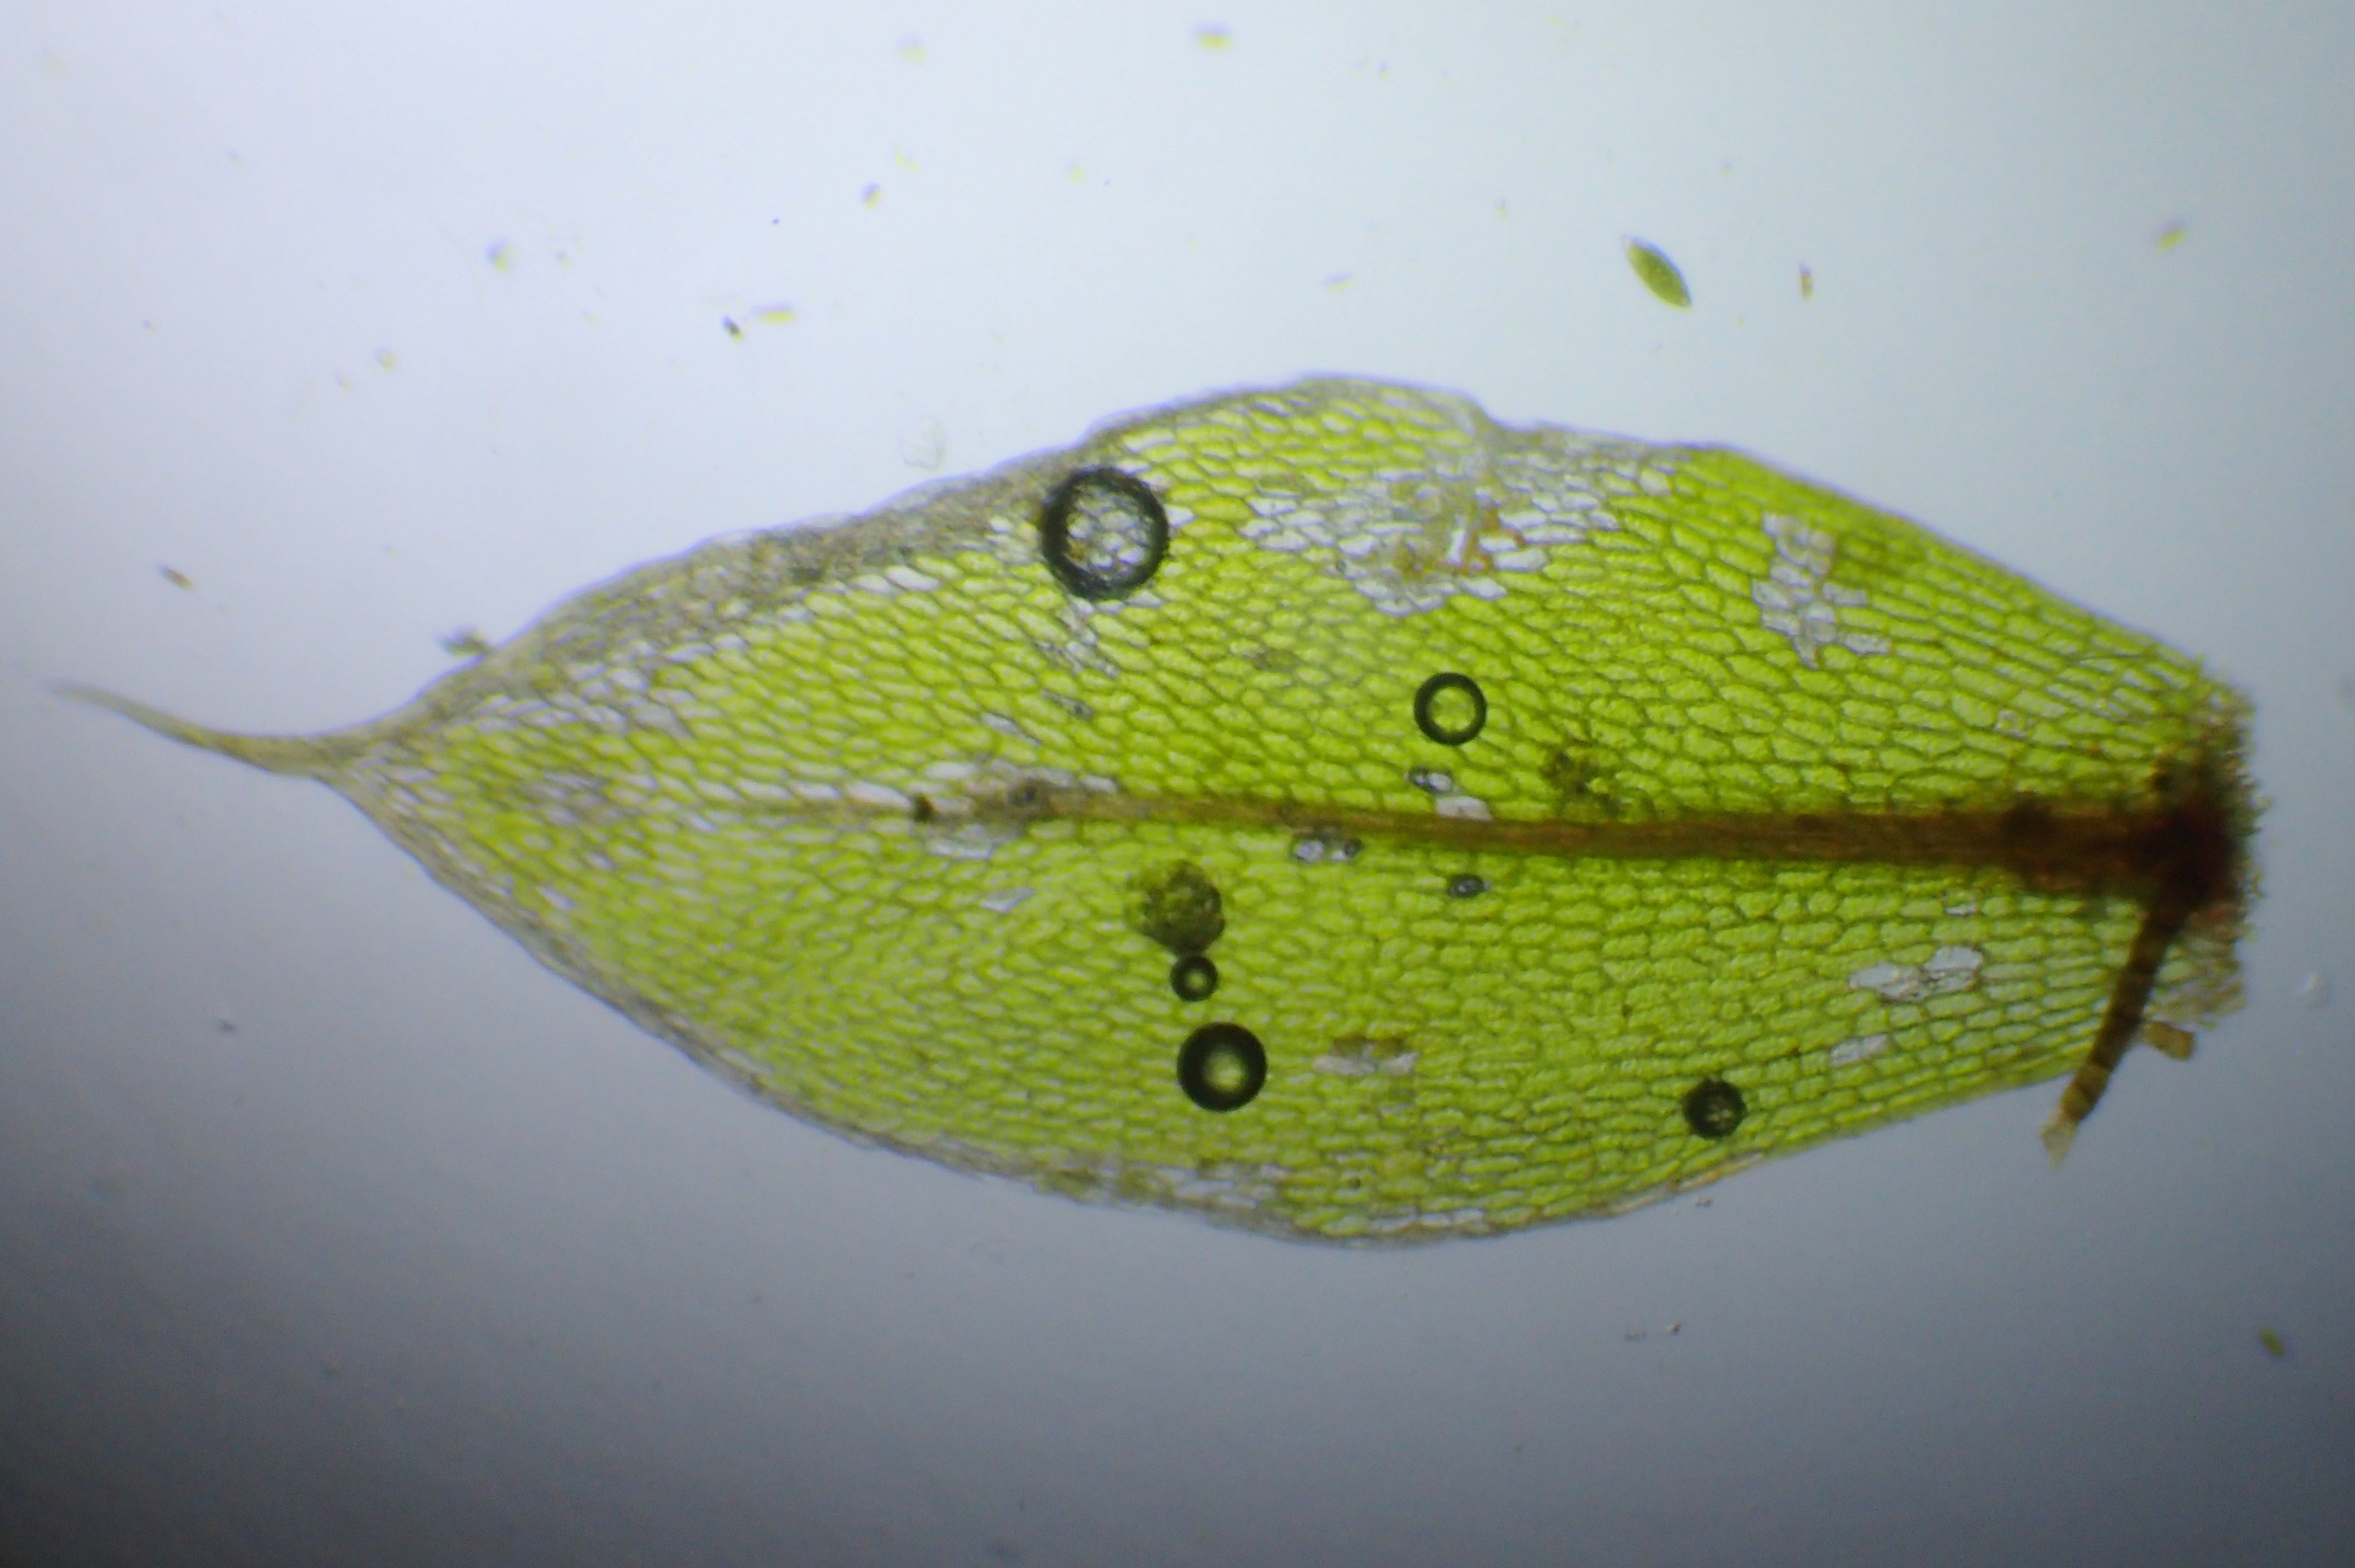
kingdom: Plantae
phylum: Bryophyta
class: Bryopsida
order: Bryales
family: Bryaceae
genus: Rosulabryum
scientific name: Rosulabryum moravicum
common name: Bark-bryum
